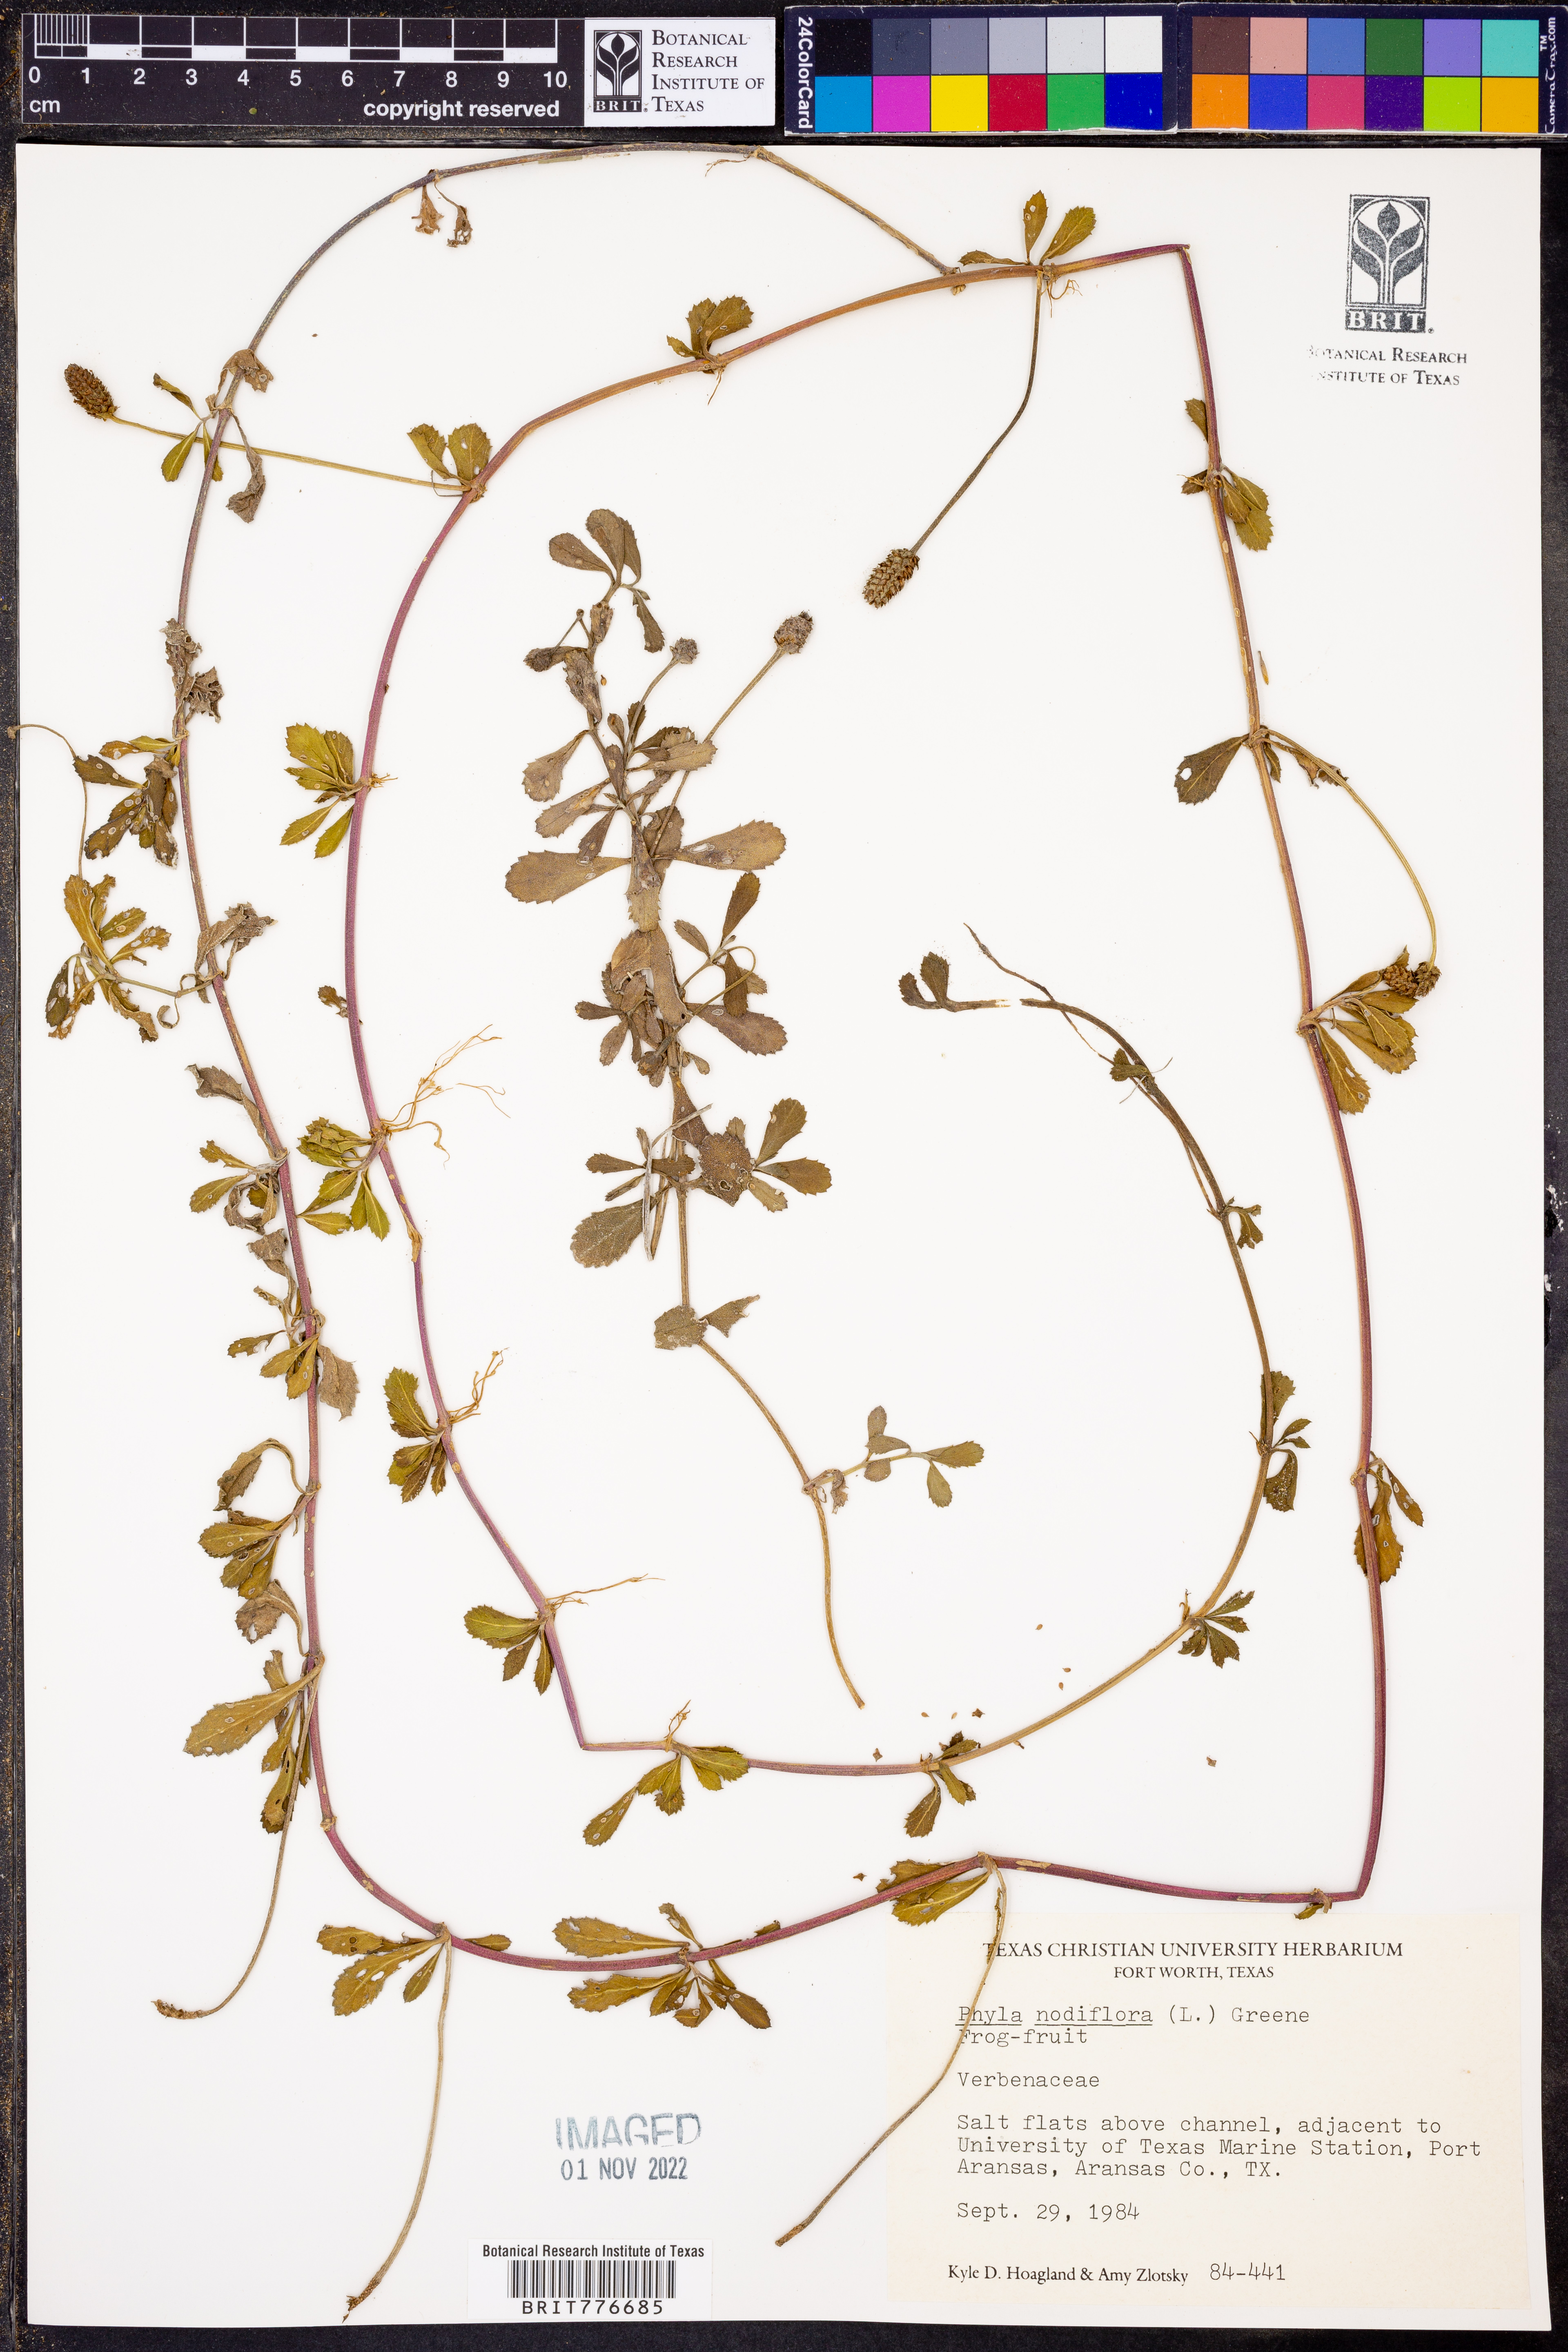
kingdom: Plantae
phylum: Tracheophyta
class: Magnoliopsida
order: Lamiales
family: Verbenaceae
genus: Phyla
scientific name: Phyla nodiflora
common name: Frogfruit
